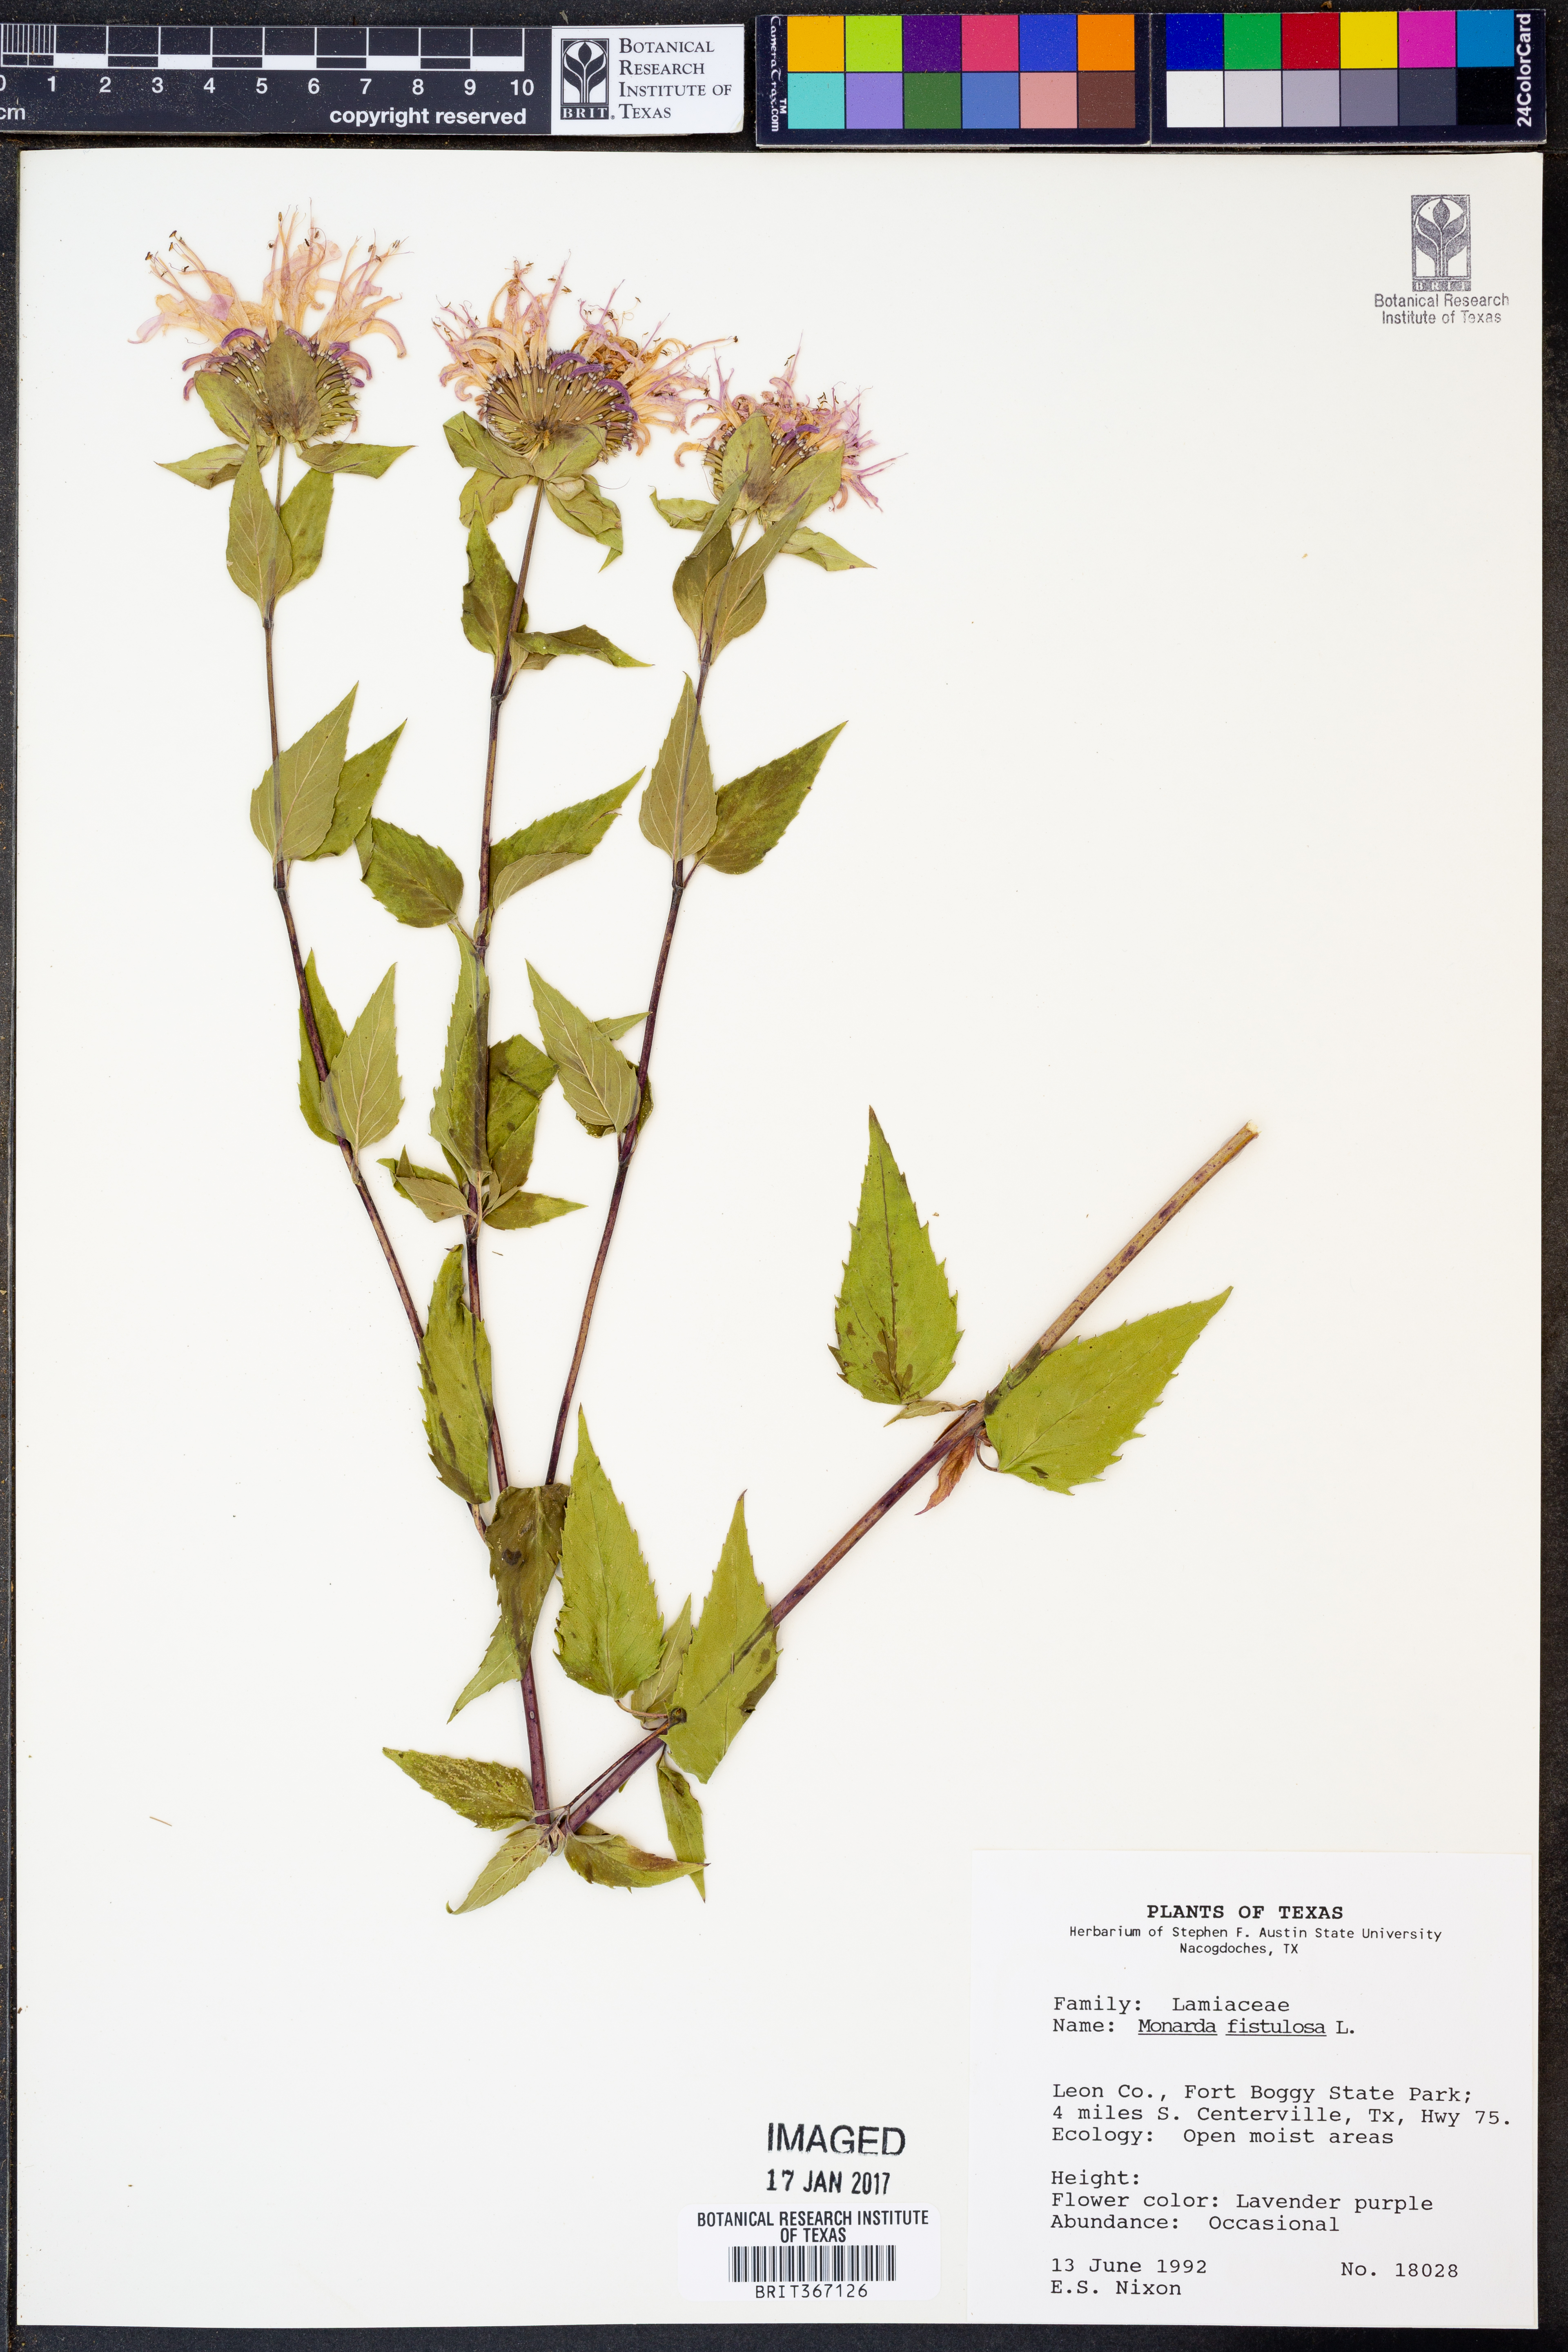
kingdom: Plantae
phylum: Tracheophyta
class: Magnoliopsida
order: Lamiales
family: Lamiaceae
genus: Monarda
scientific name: Monarda fistulosa
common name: Purple beebalm
